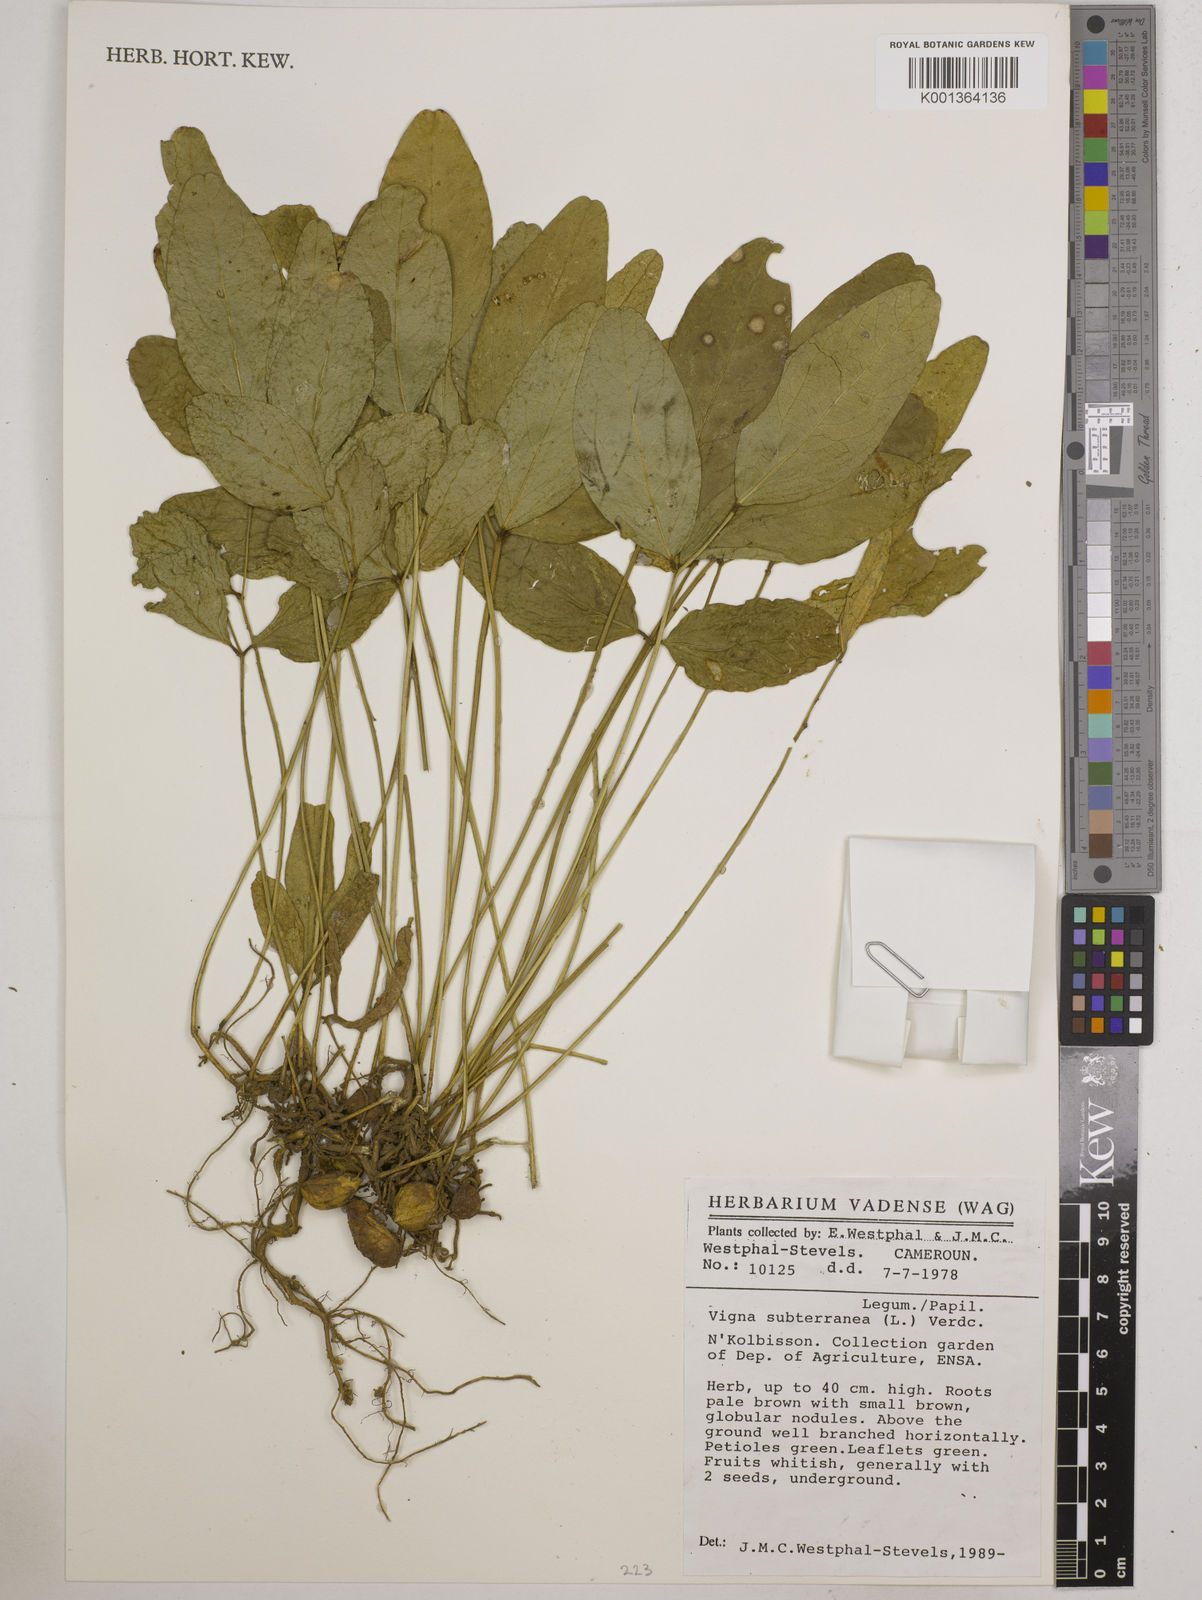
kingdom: Plantae
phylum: Tracheophyta
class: Magnoliopsida
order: Fabales
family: Fabaceae
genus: Vigna
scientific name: Vigna subterranea
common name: Bambara groundnut
